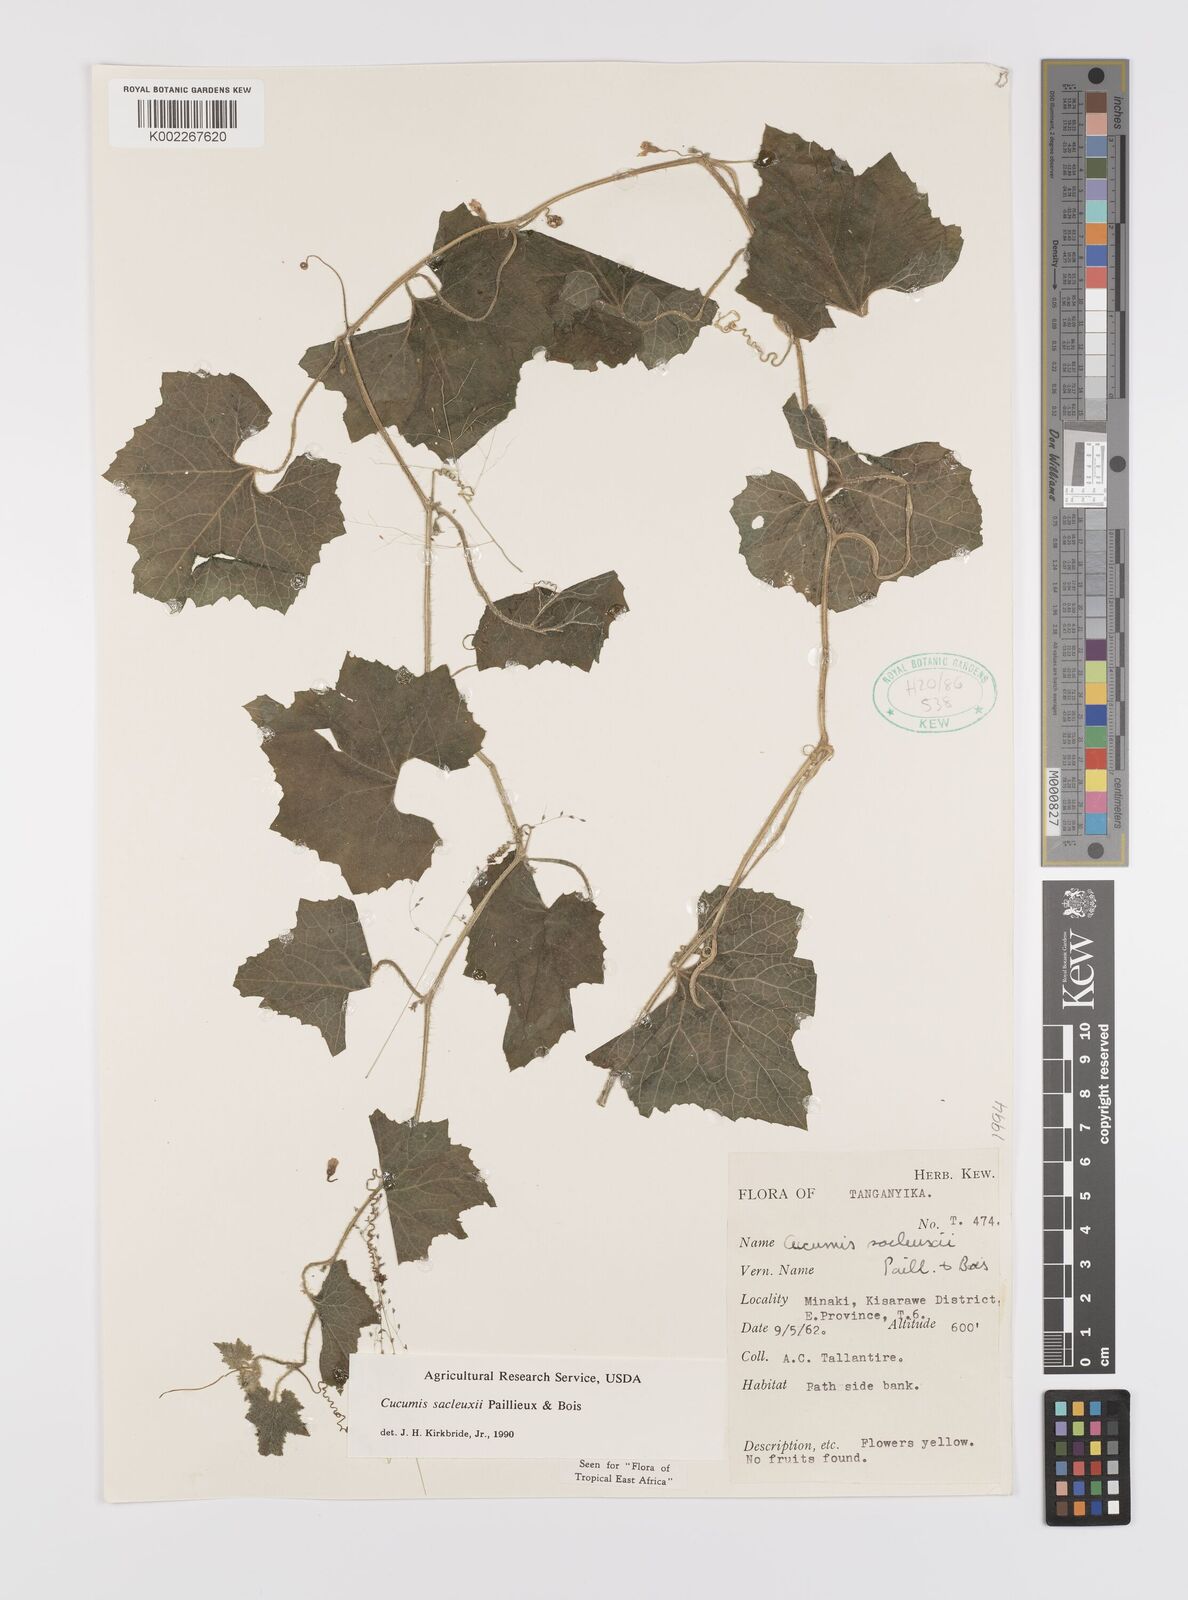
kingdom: Plantae
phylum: Tracheophyta
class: Magnoliopsida
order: Cucurbitales
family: Cucurbitaceae
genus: Cucumis
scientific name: Cucumis sacleuxii
